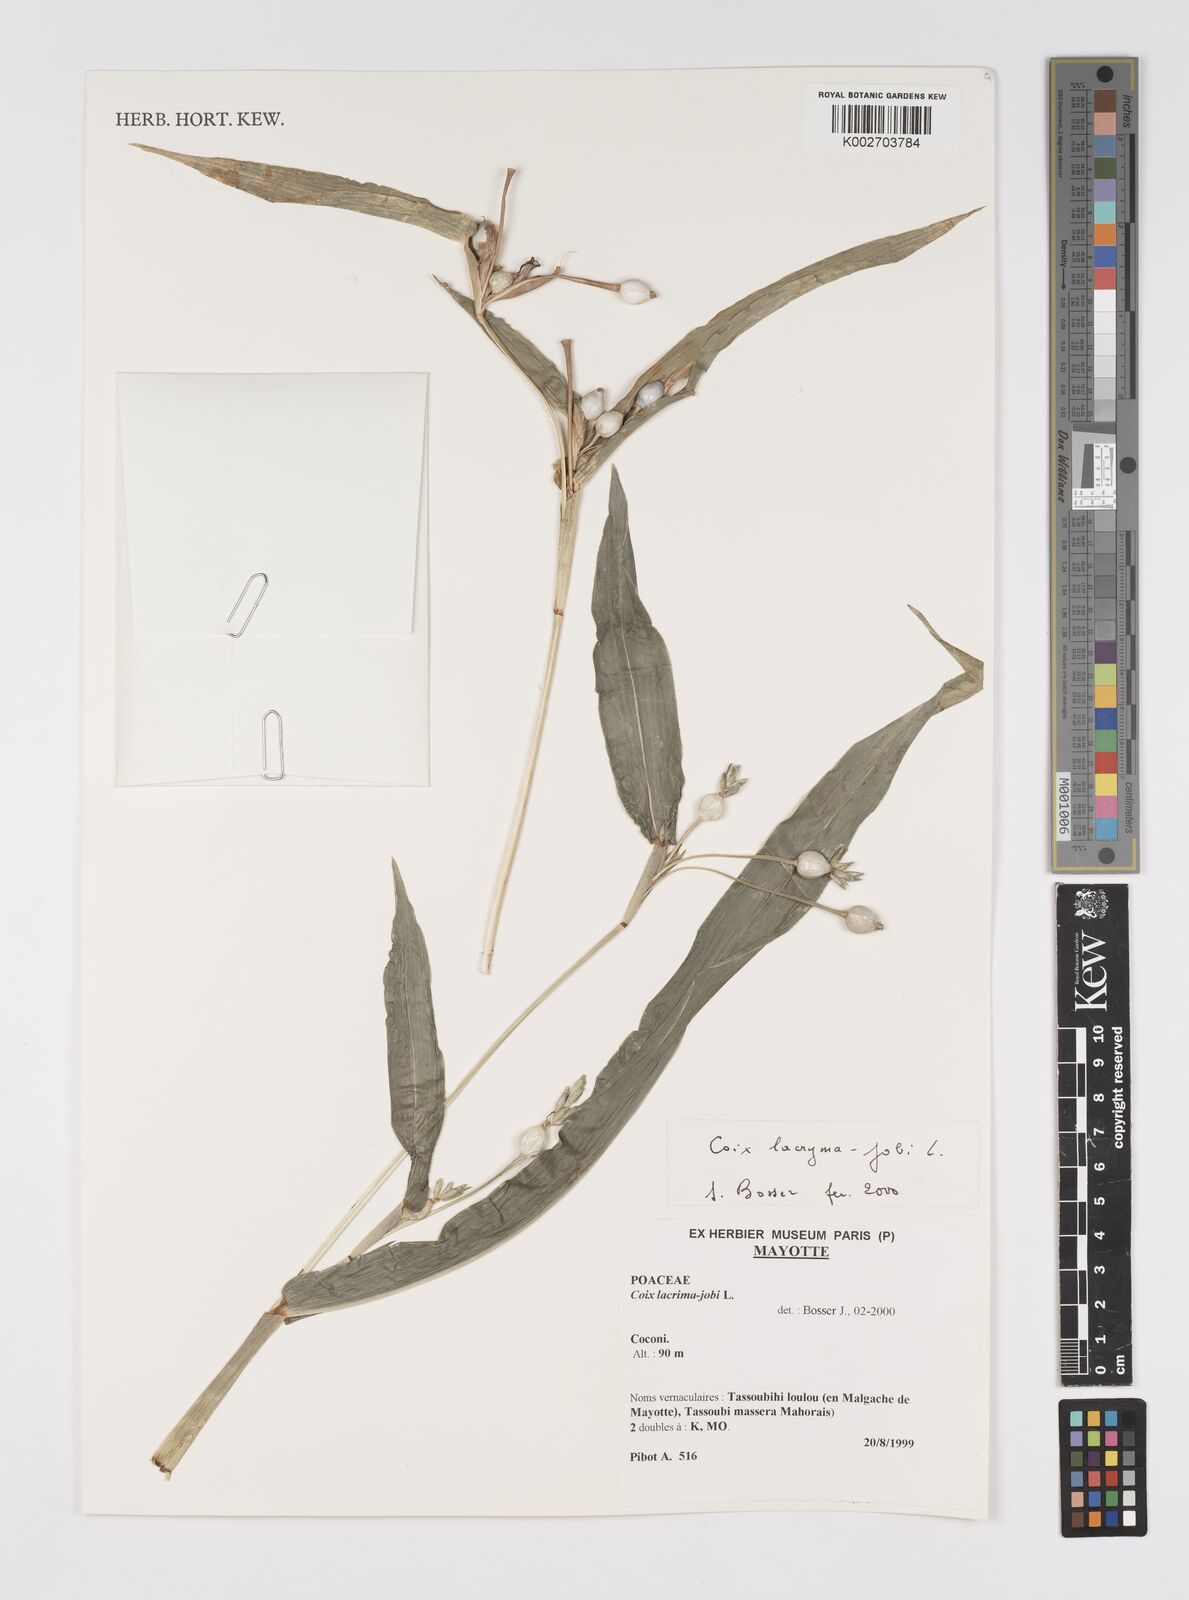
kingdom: Plantae
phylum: Tracheophyta
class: Liliopsida
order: Poales
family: Poaceae
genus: Coix
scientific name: Coix lacryma-jobi
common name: Job's tears
